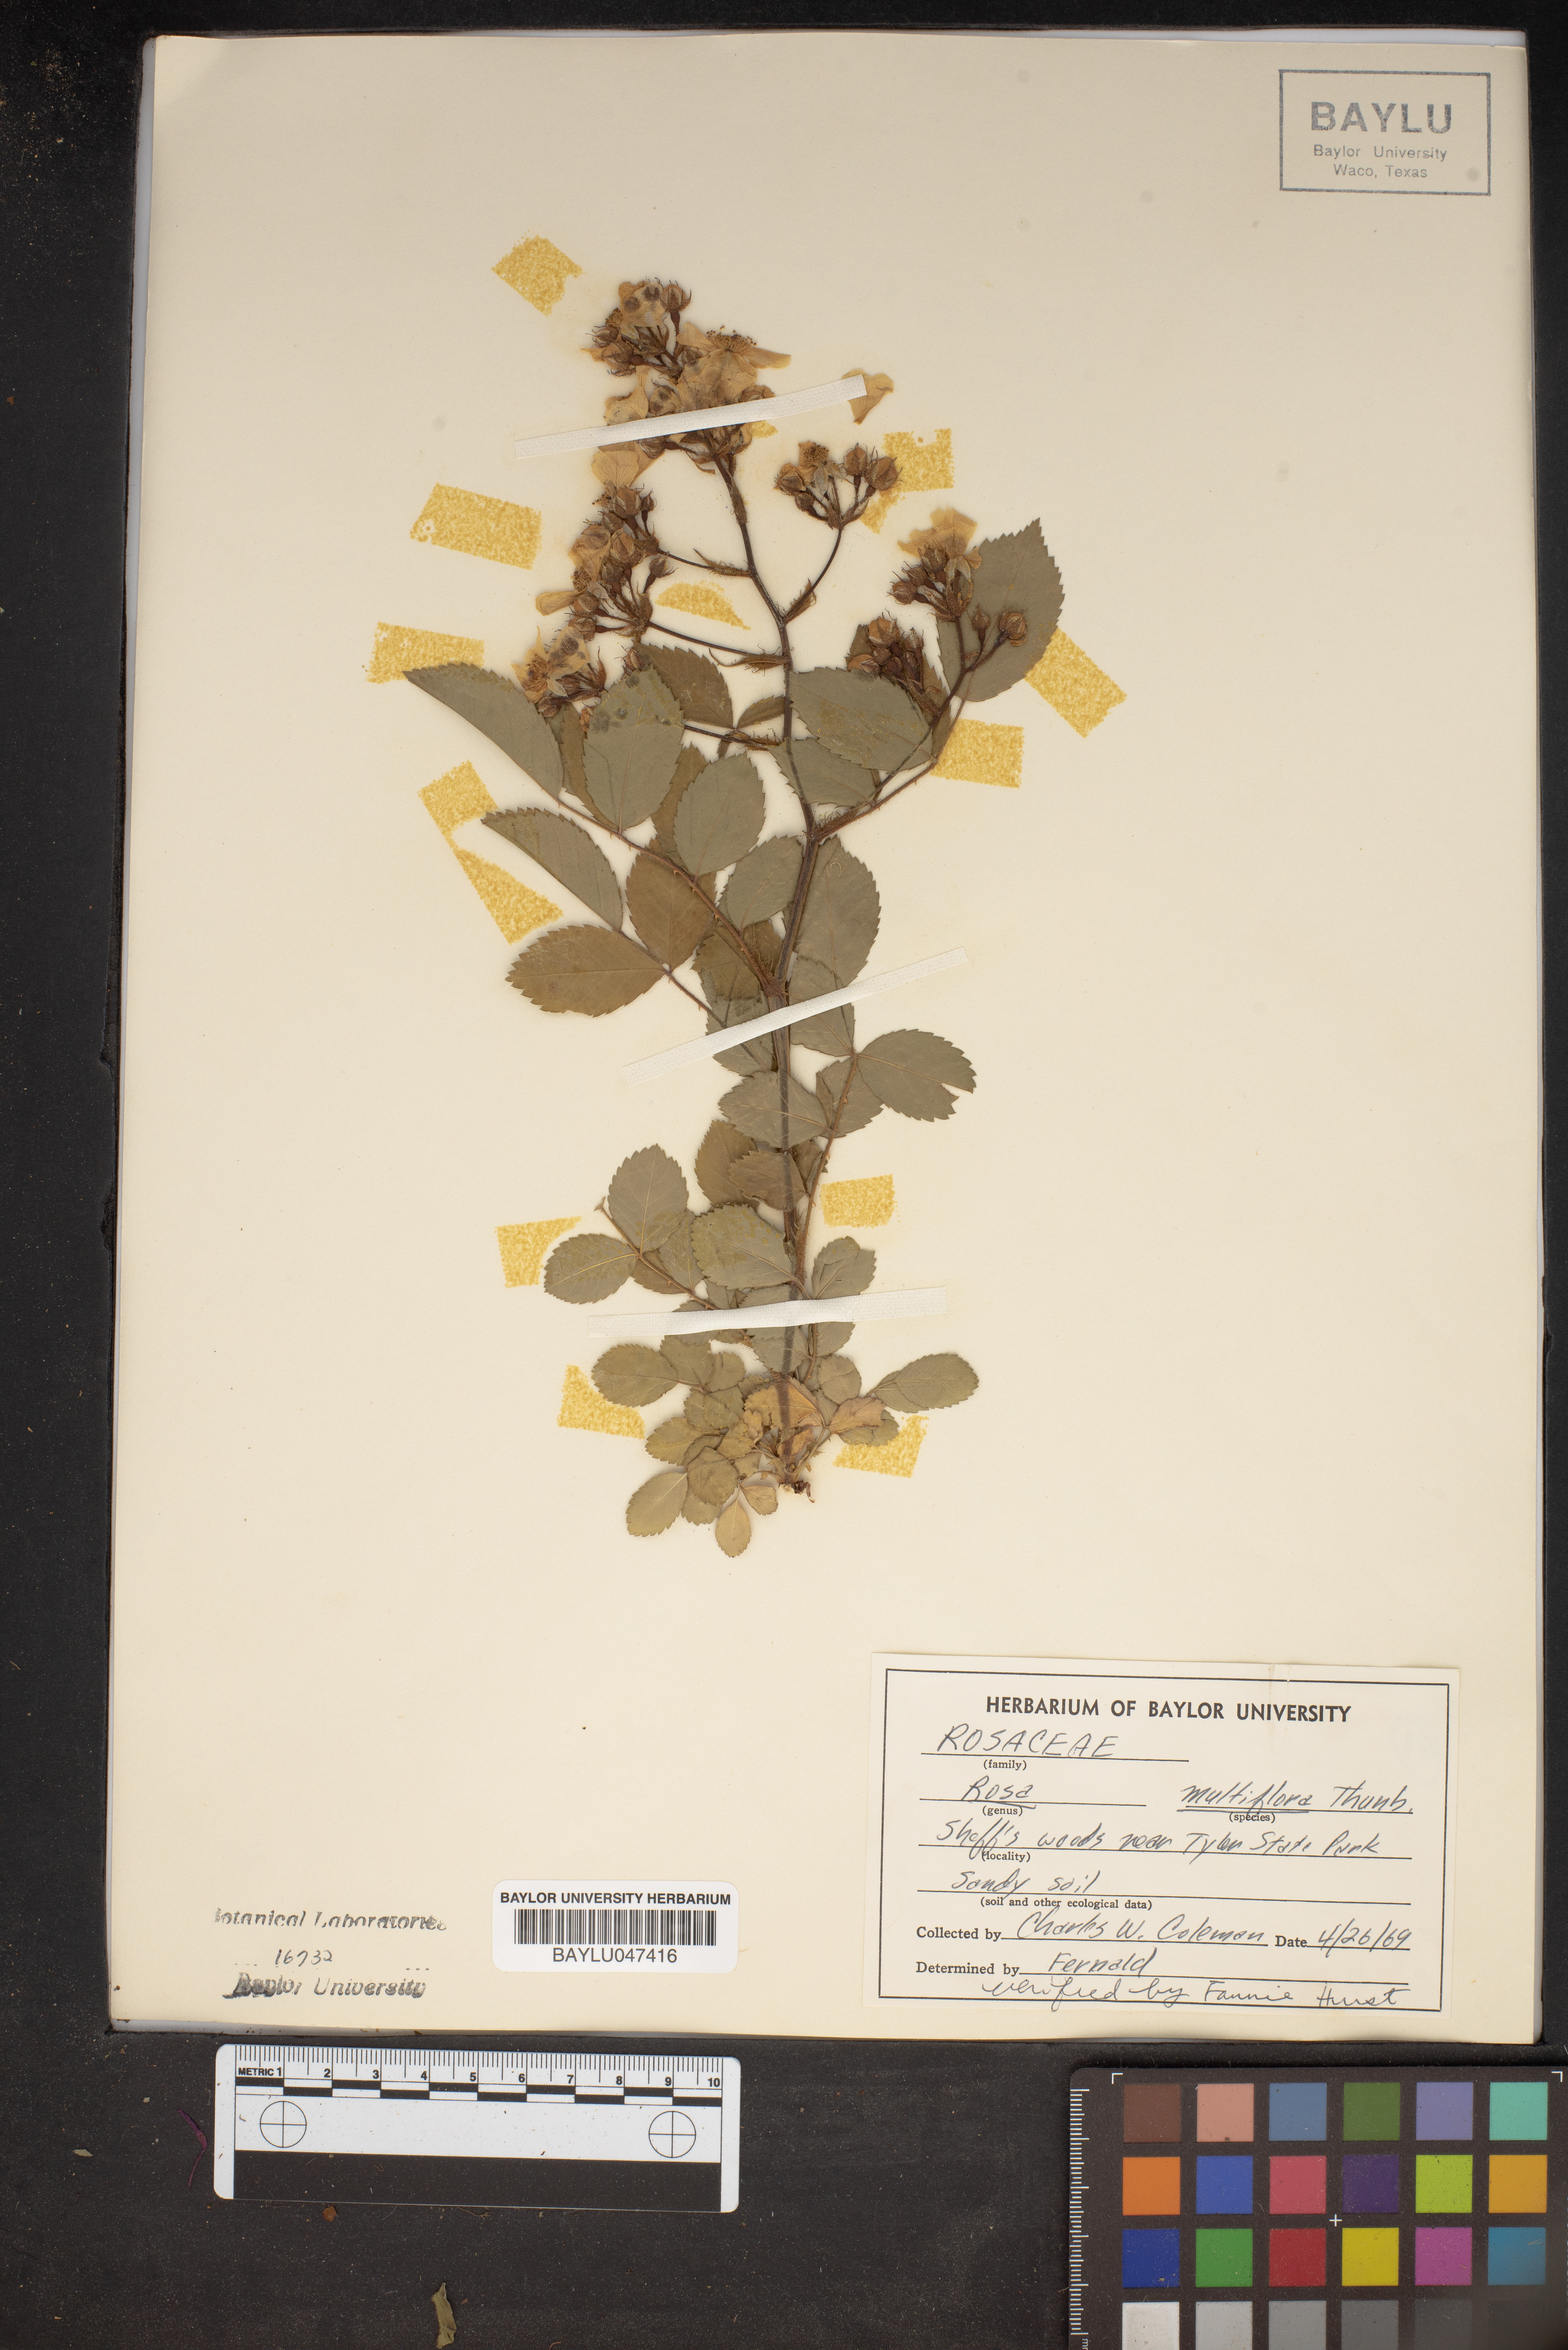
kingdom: Plantae
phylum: Tracheophyta
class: Magnoliopsida
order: Rosales
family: Rosaceae
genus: Rosa
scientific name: Rosa multiflora
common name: Multiflora rose
